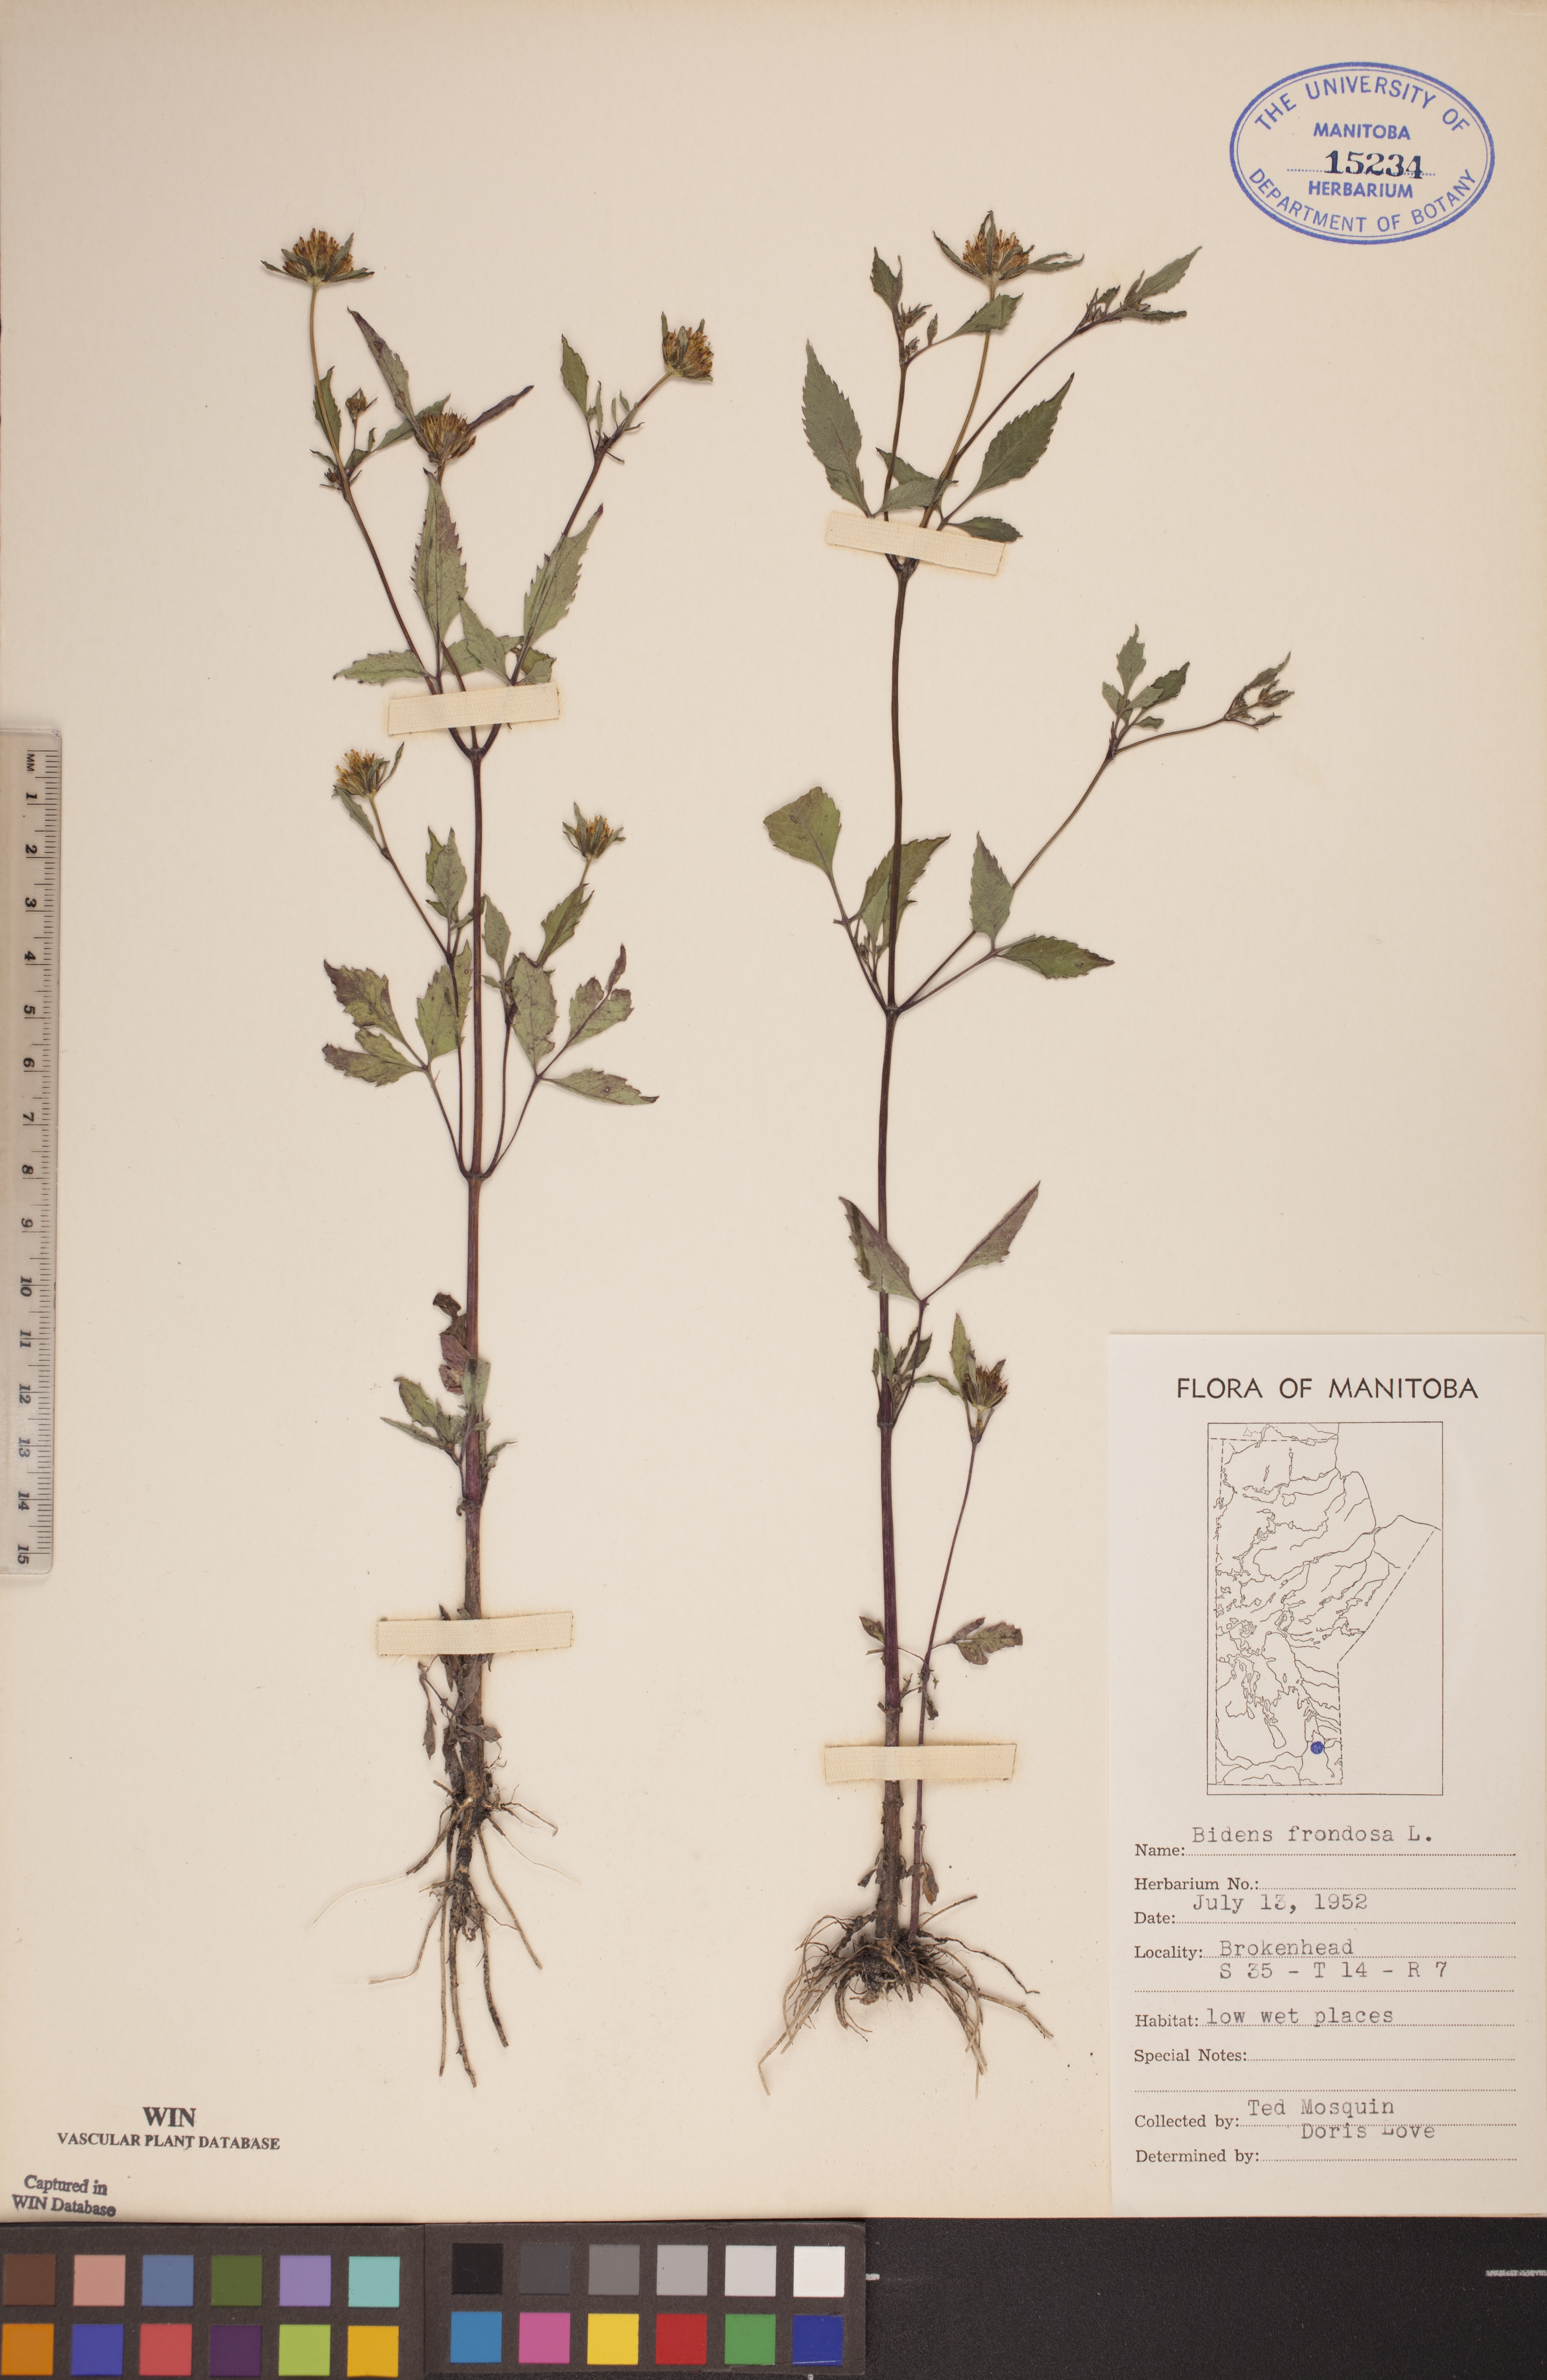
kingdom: Plantae
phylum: Tracheophyta
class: Magnoliopsida
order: Asterales
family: Asteraceae
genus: Bidens
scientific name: Bidens frondosa
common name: Beggarticks
